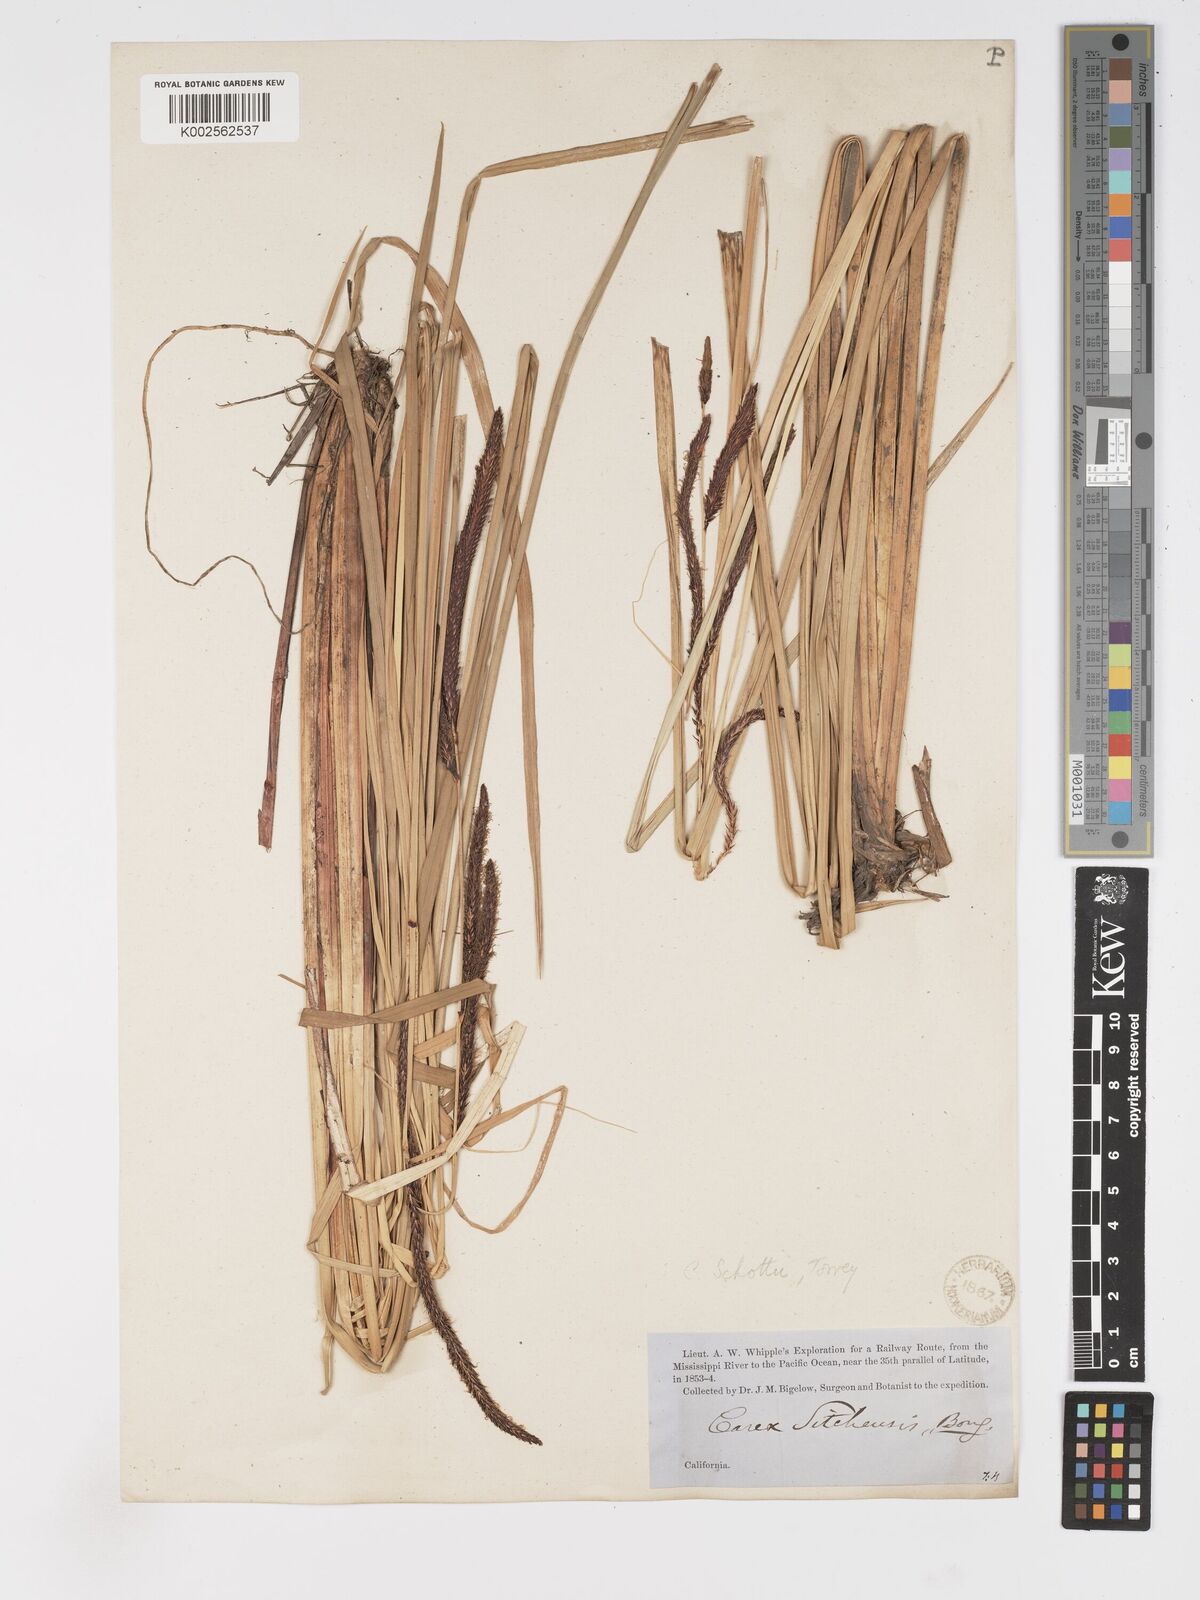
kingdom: Plantae
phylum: Tracheophyta
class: Liliopsida
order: Poales
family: Cyperaceae
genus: Carex
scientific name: Carex schottii
